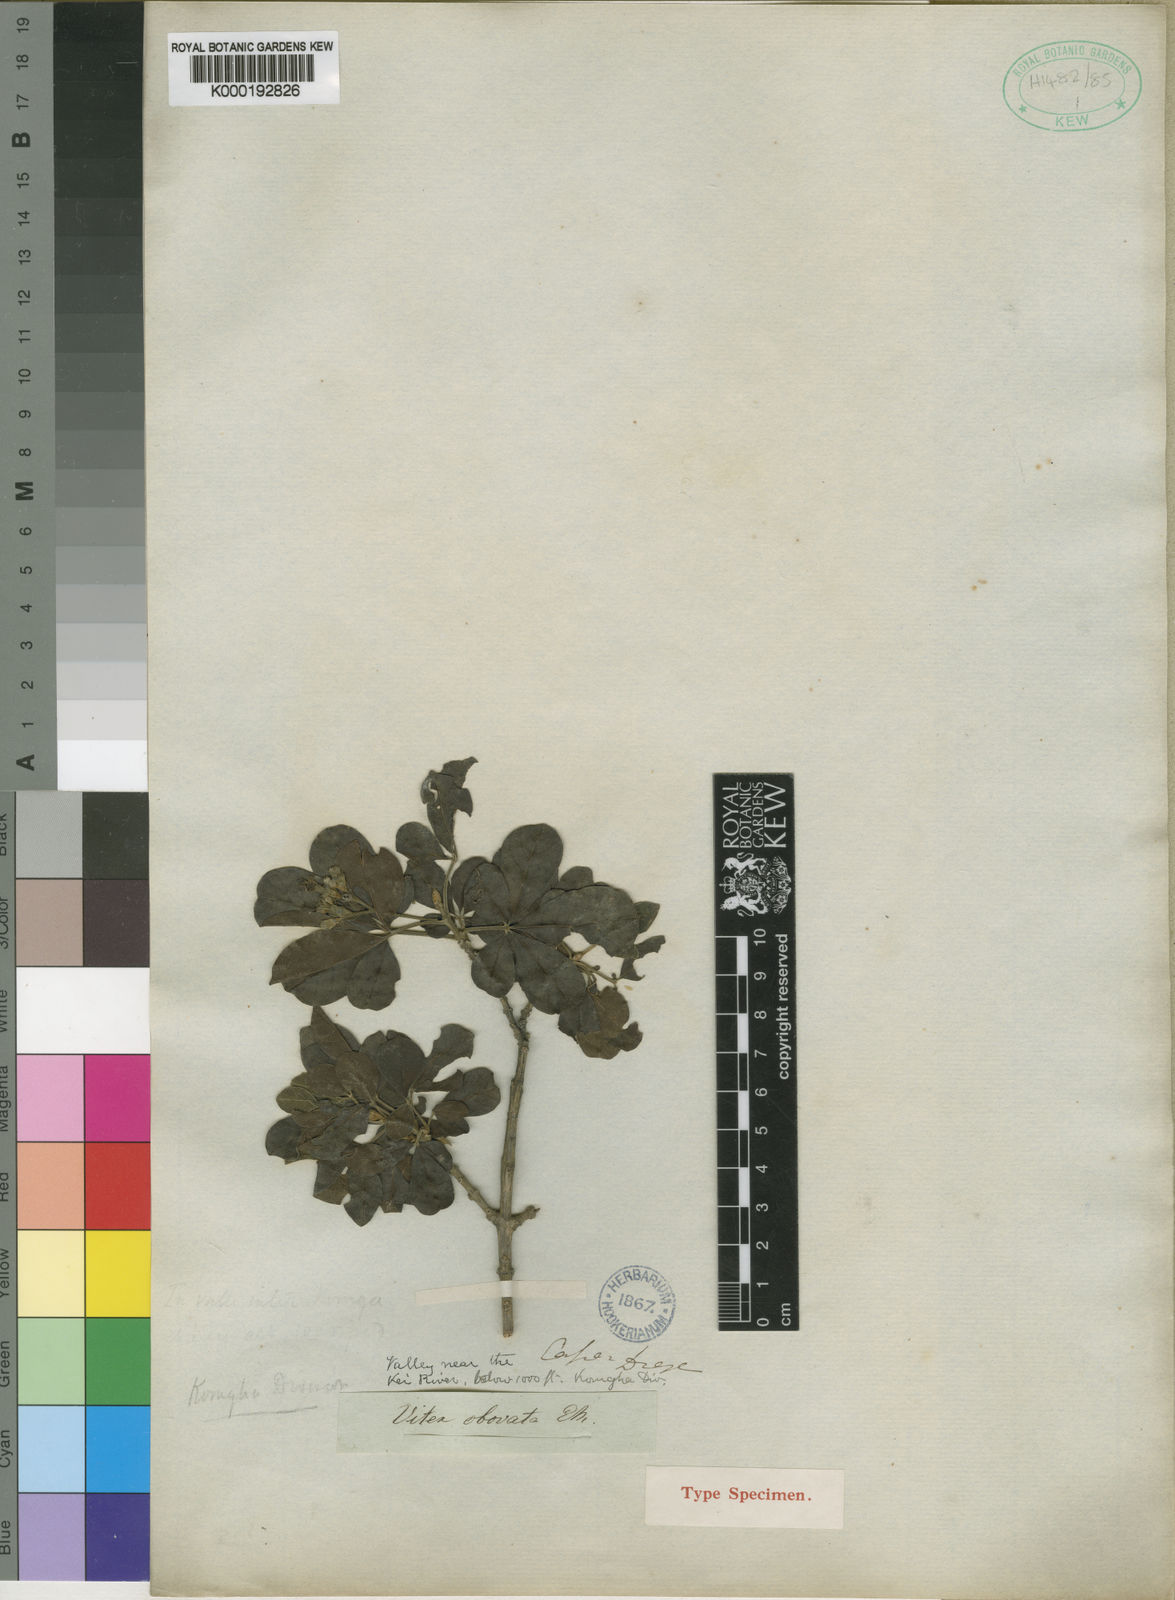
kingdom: Plantae
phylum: Tracheophyta
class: Magnoliopsida
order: Lamiales
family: Lamiaceae
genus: Vitex
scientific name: Vitex obovata
